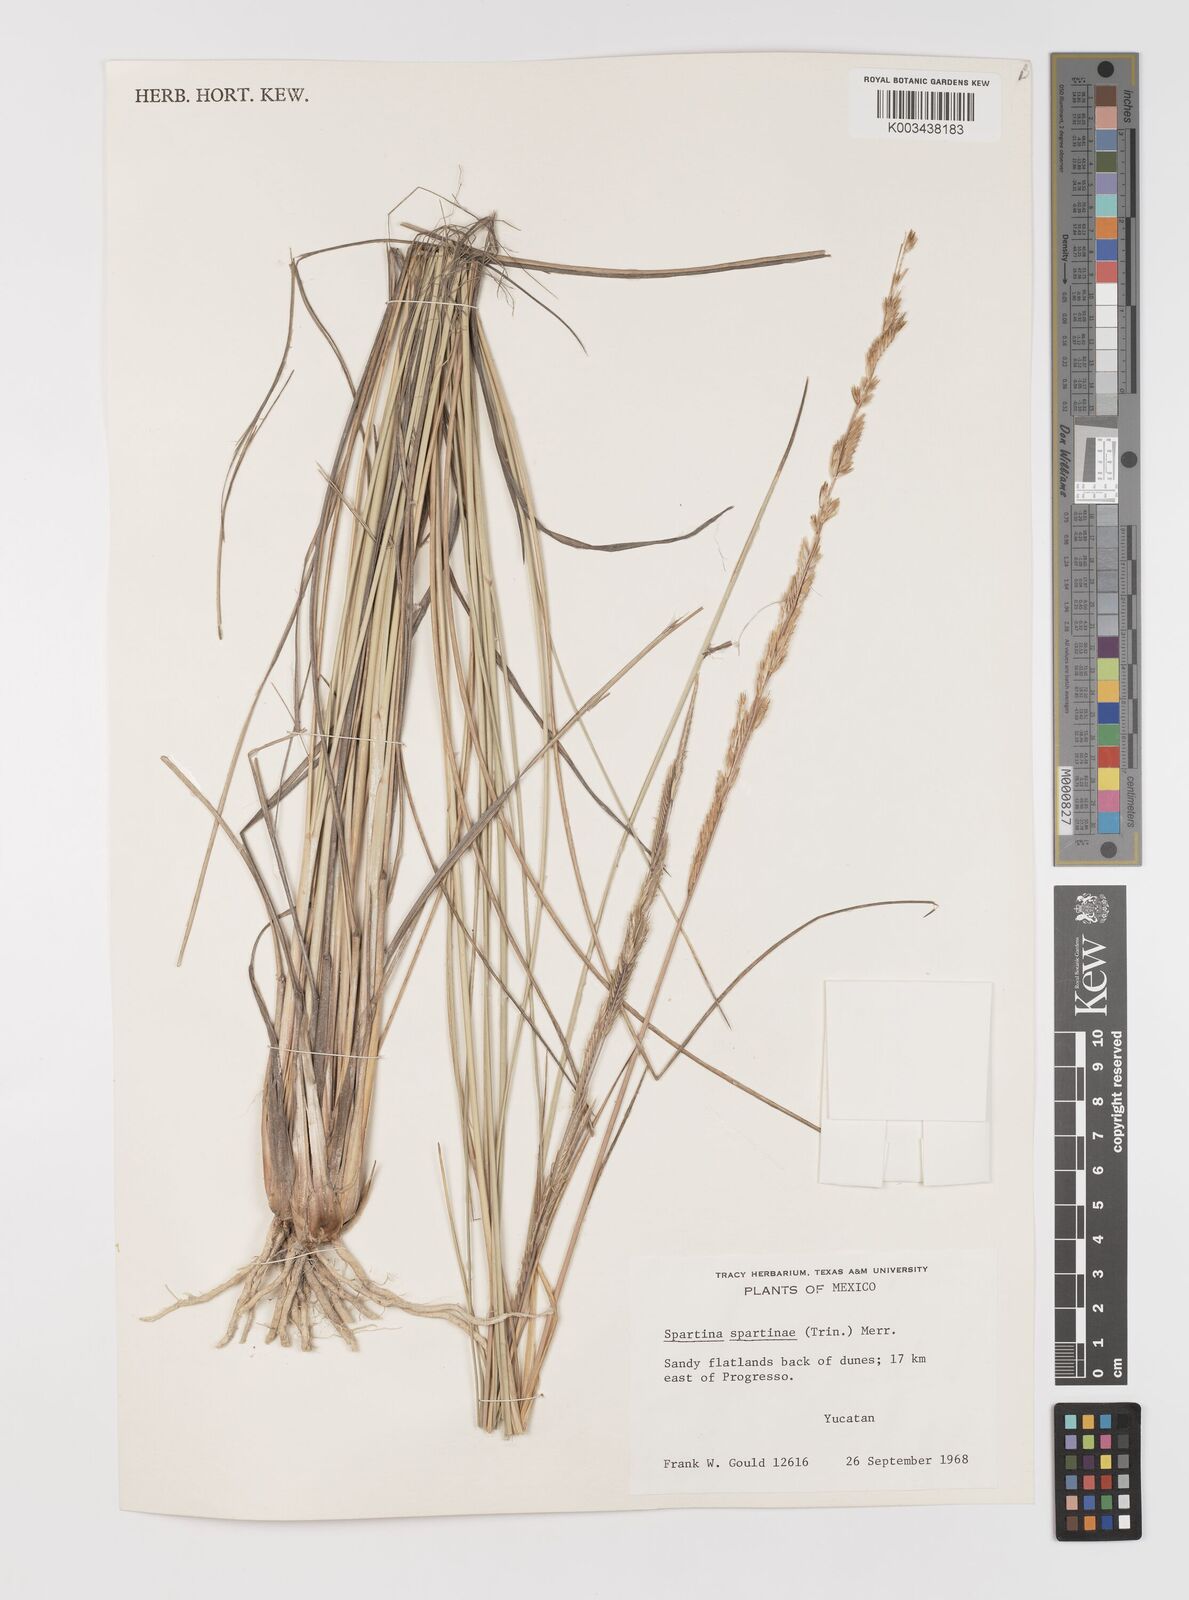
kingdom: Plantae
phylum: Tracheophyta
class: Liliopsida
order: Poales
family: Poaceae
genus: Sporobolus
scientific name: Sporobolus spartinae
